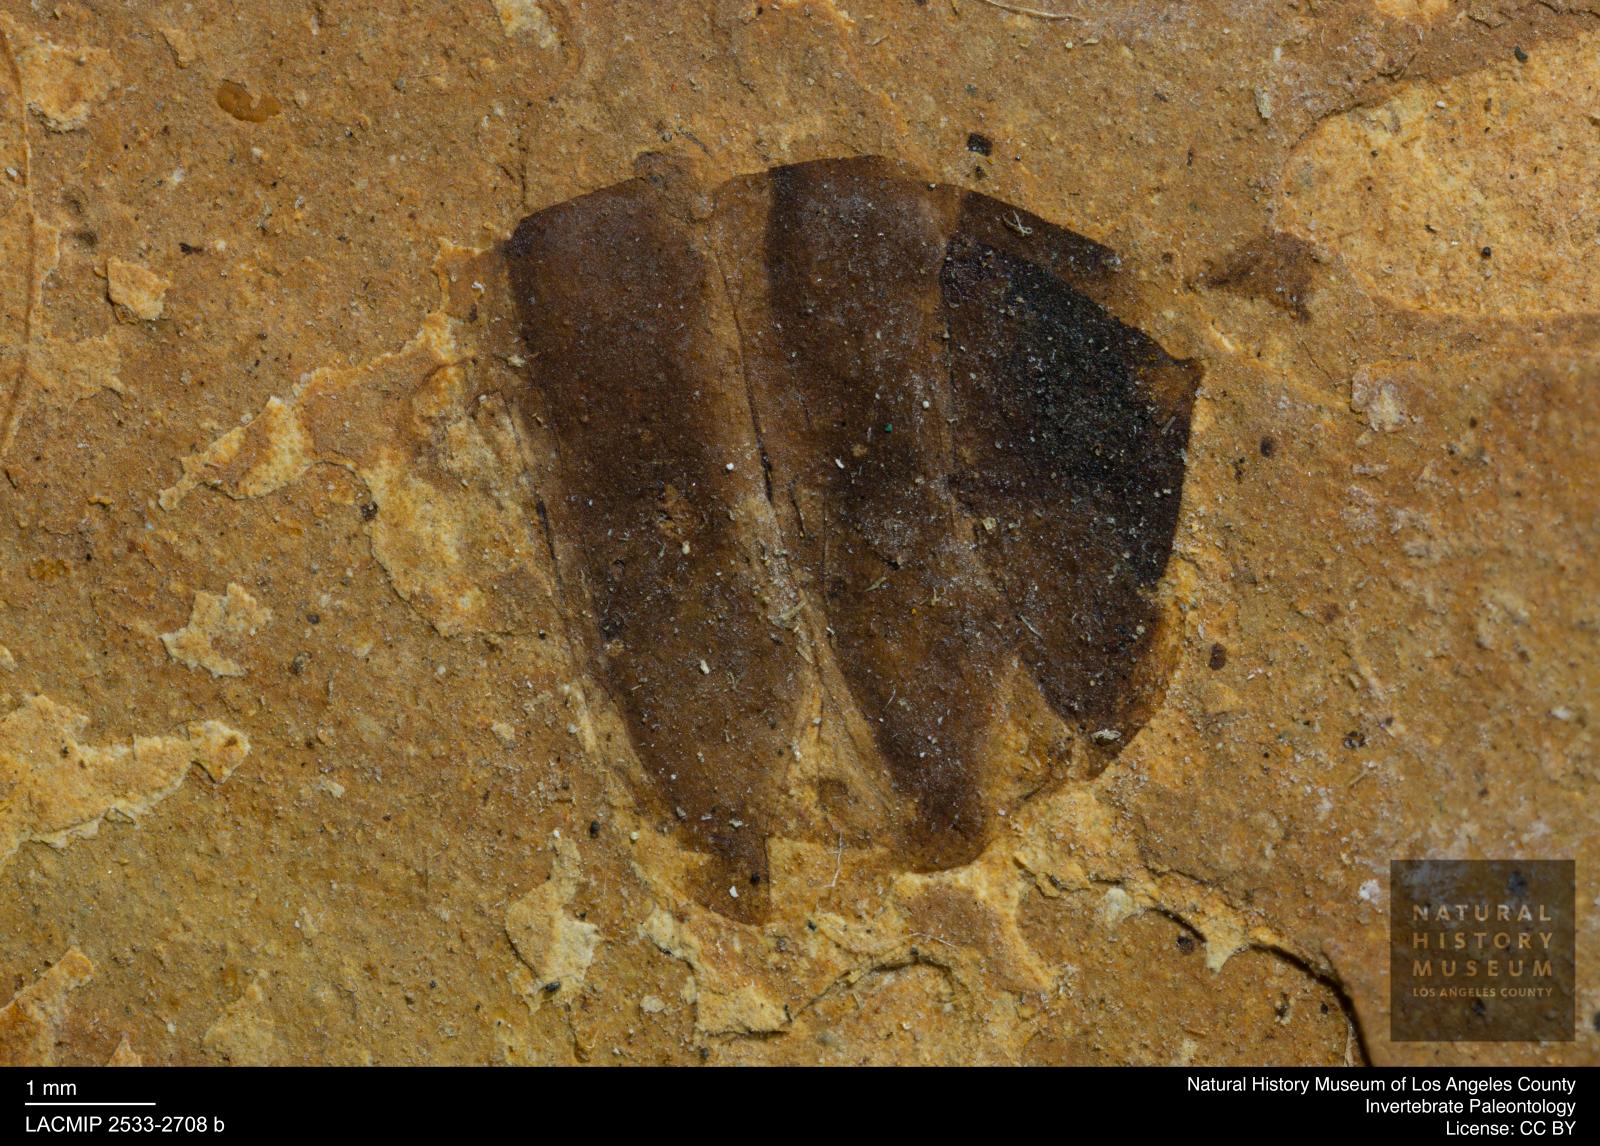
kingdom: Animalia
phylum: Arthropoda
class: Insecta
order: Hymenoptera
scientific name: Hymenoptera
